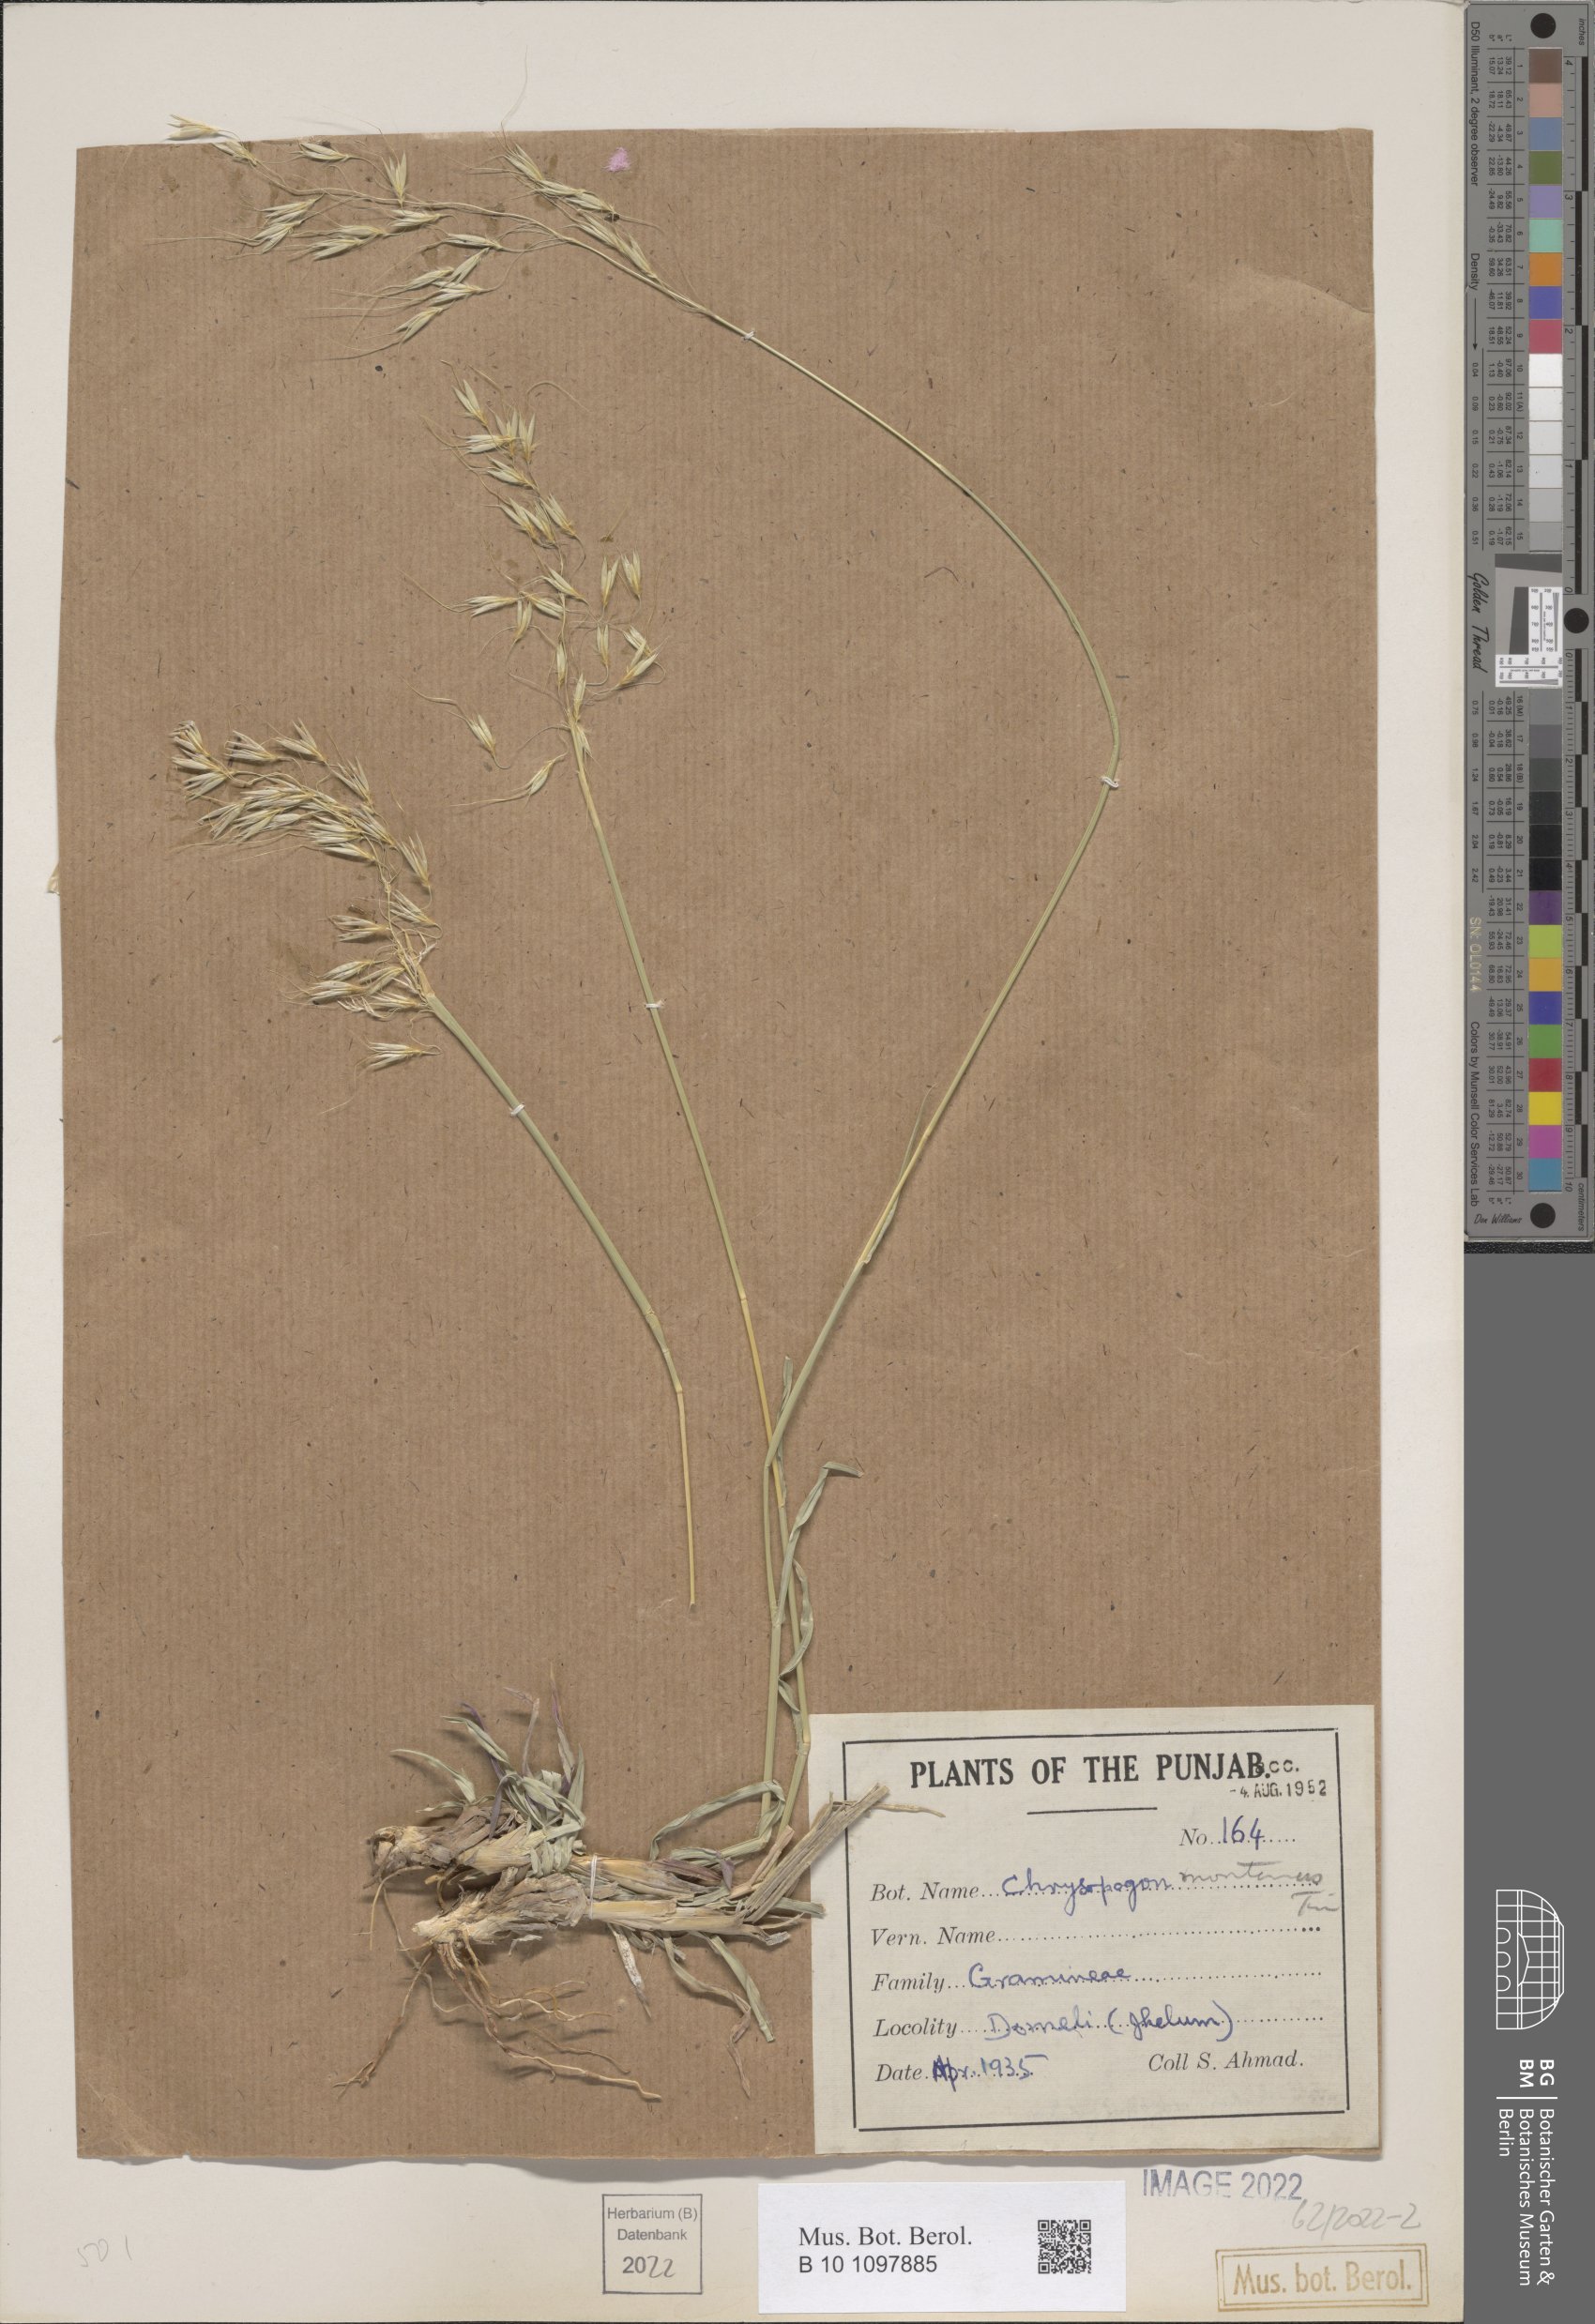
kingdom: Plantae
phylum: Tracheophyta
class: Liliopsida
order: Poales
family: Poaceae
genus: Chrysopogon
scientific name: Chrysopogon fulvus
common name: Red false beardgrass
